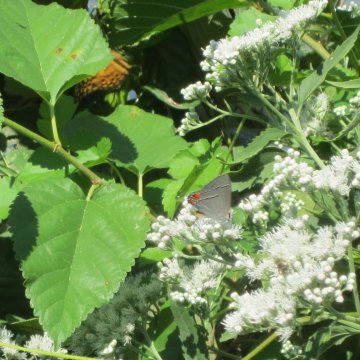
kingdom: Animalia
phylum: Arthropoda
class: Insecta
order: Lepidoptera
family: Lycaenidae
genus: Strymon
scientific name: Strymon melinus
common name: Gray Hairstreak
